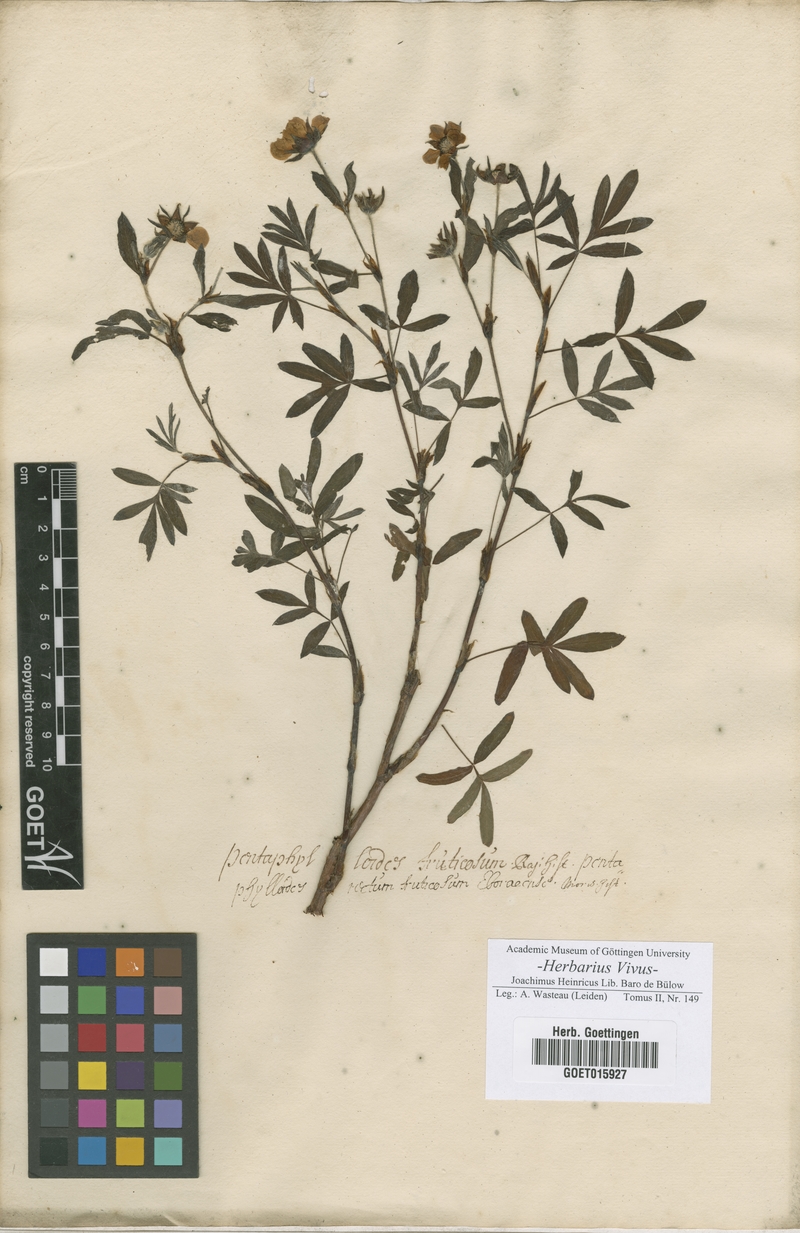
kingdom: Plantae
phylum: Tracheophyta
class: Magnoliopsida
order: Rosales
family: Rosaceae
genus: Dasiphora
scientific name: Dasiphora fruticosa
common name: Shrubby cinquefoil
